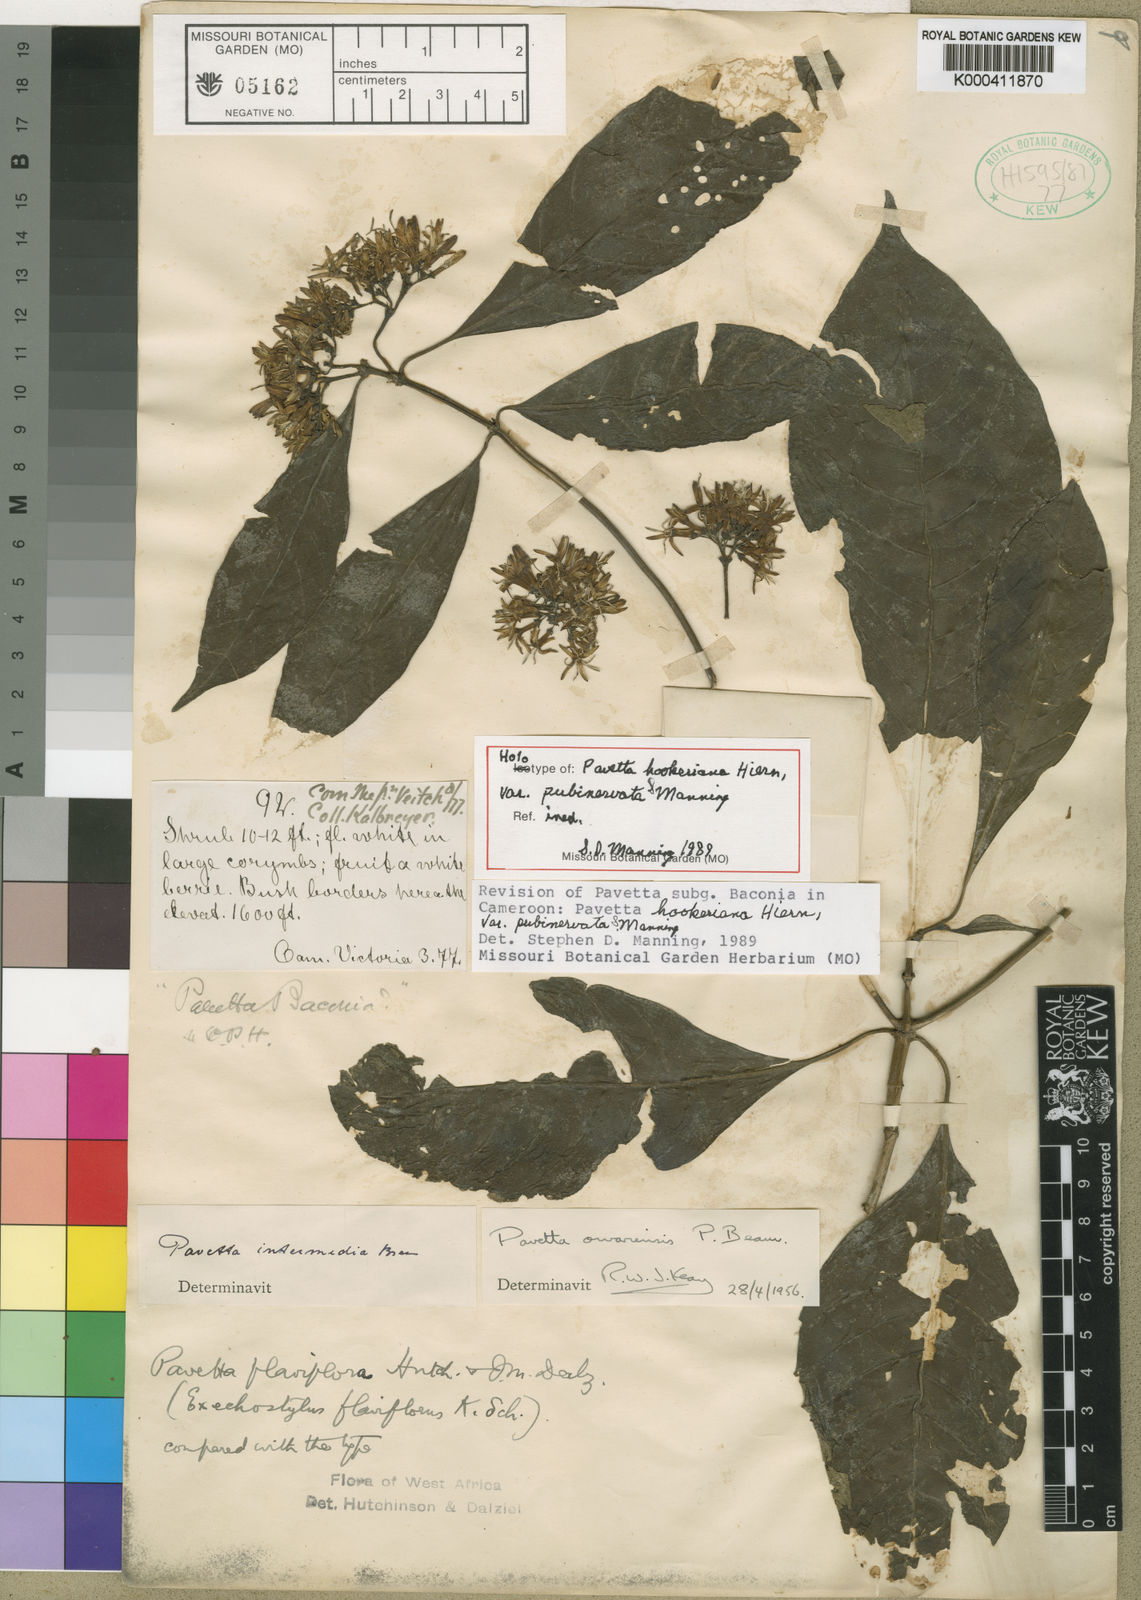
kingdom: Plantae
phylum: Tracheophyta
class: Magnoliopsida
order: Gentianales
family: Rubiaceae
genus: Pavetta
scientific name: Pavetta hookeriana
